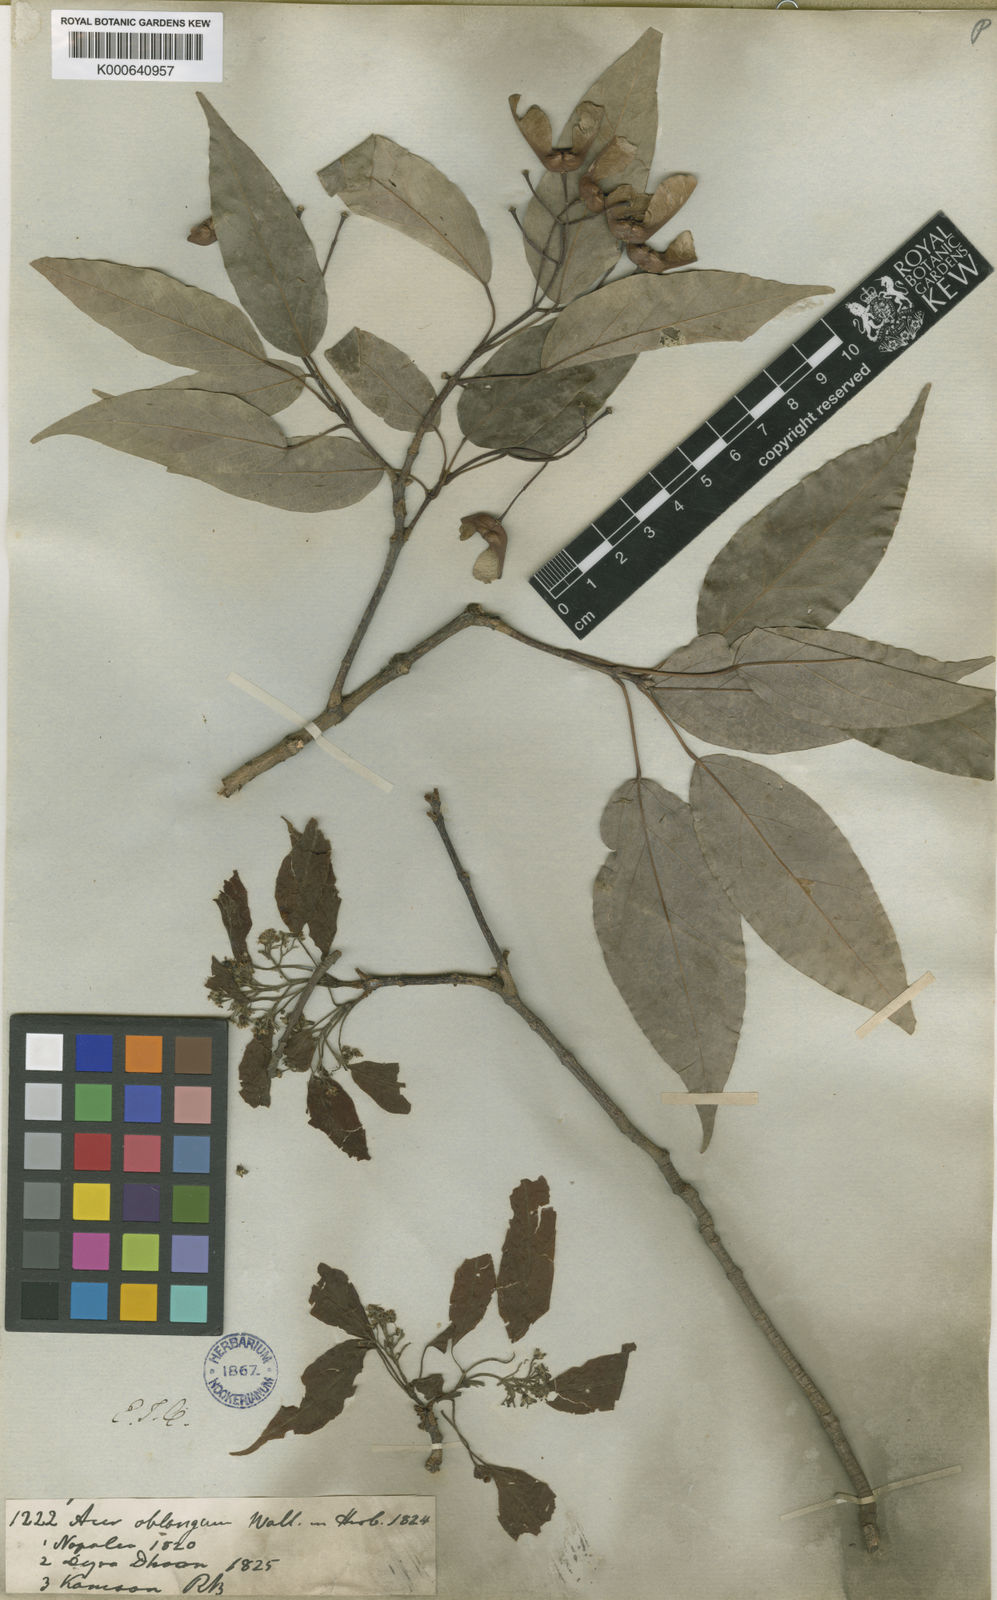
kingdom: Plantae
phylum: Tracheophyta
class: Magnoliopsida
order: Sapindales
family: Sapindaceae
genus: Acer
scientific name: Acer oblongum
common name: Himalayan maple
